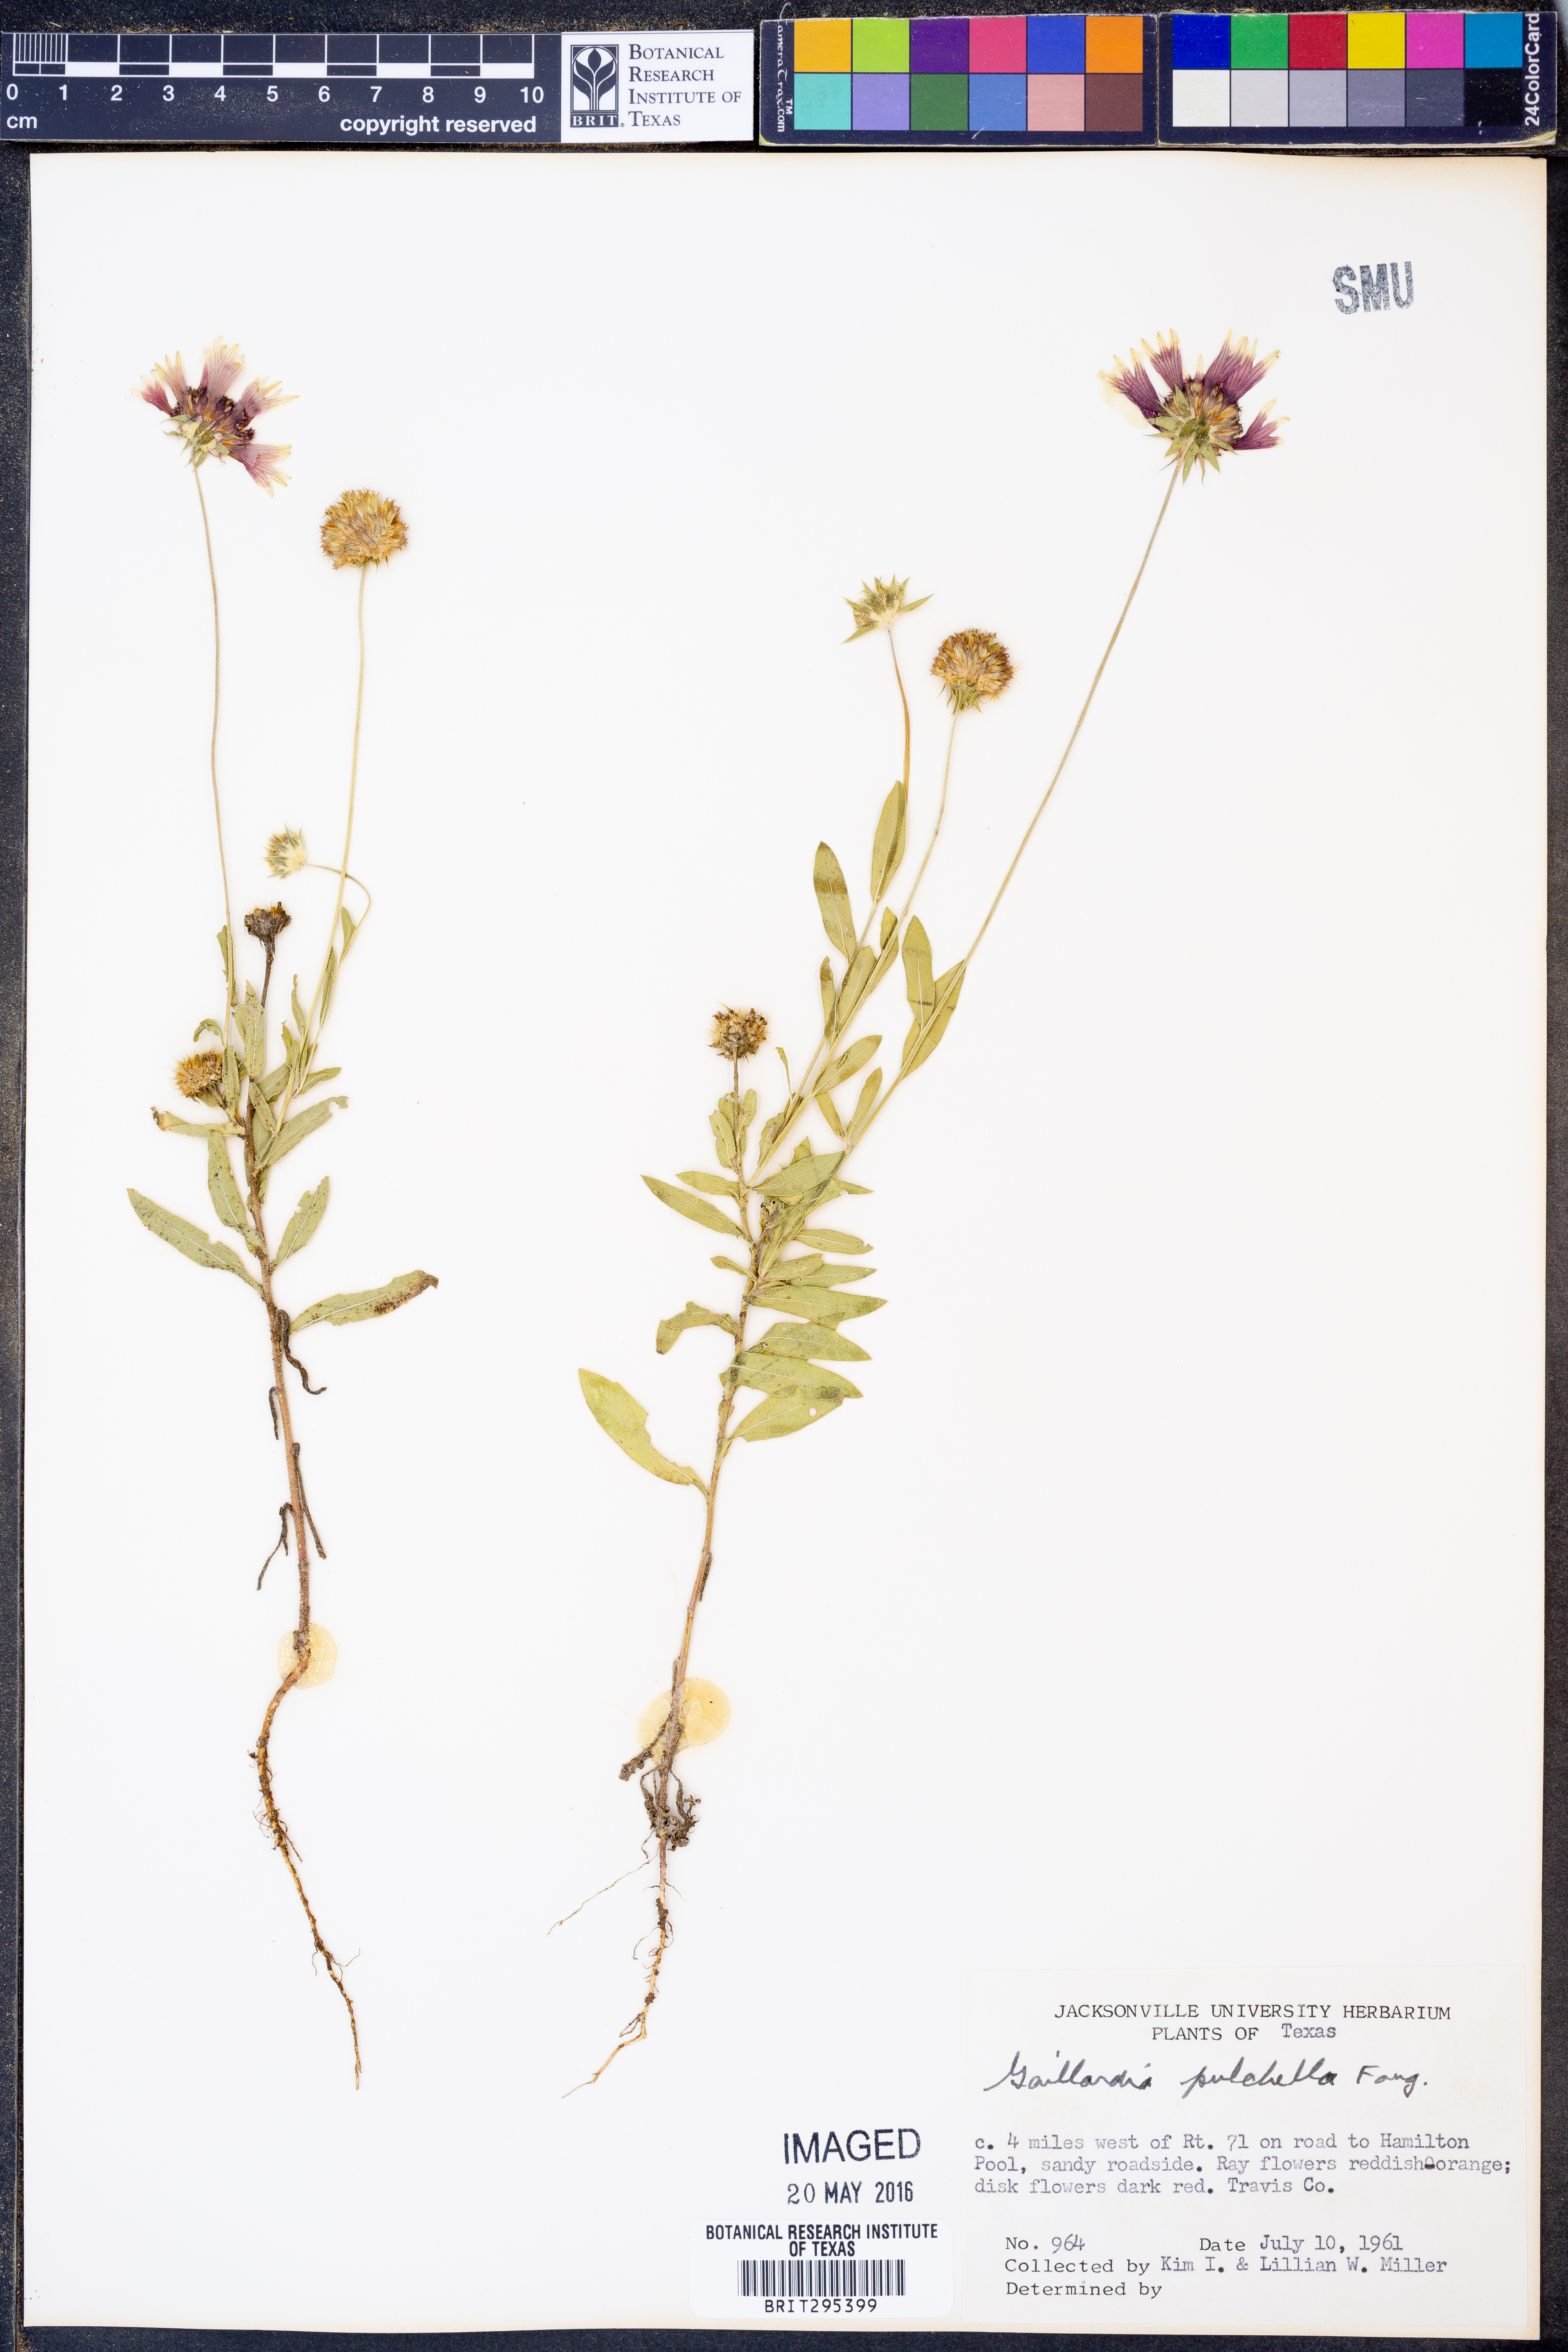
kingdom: Plantae
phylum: Tracheophyta
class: Magnoliopsida
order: Asterales
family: Asteraceae
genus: Gaillardia
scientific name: Gaillardia pulchella
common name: Firewheel
